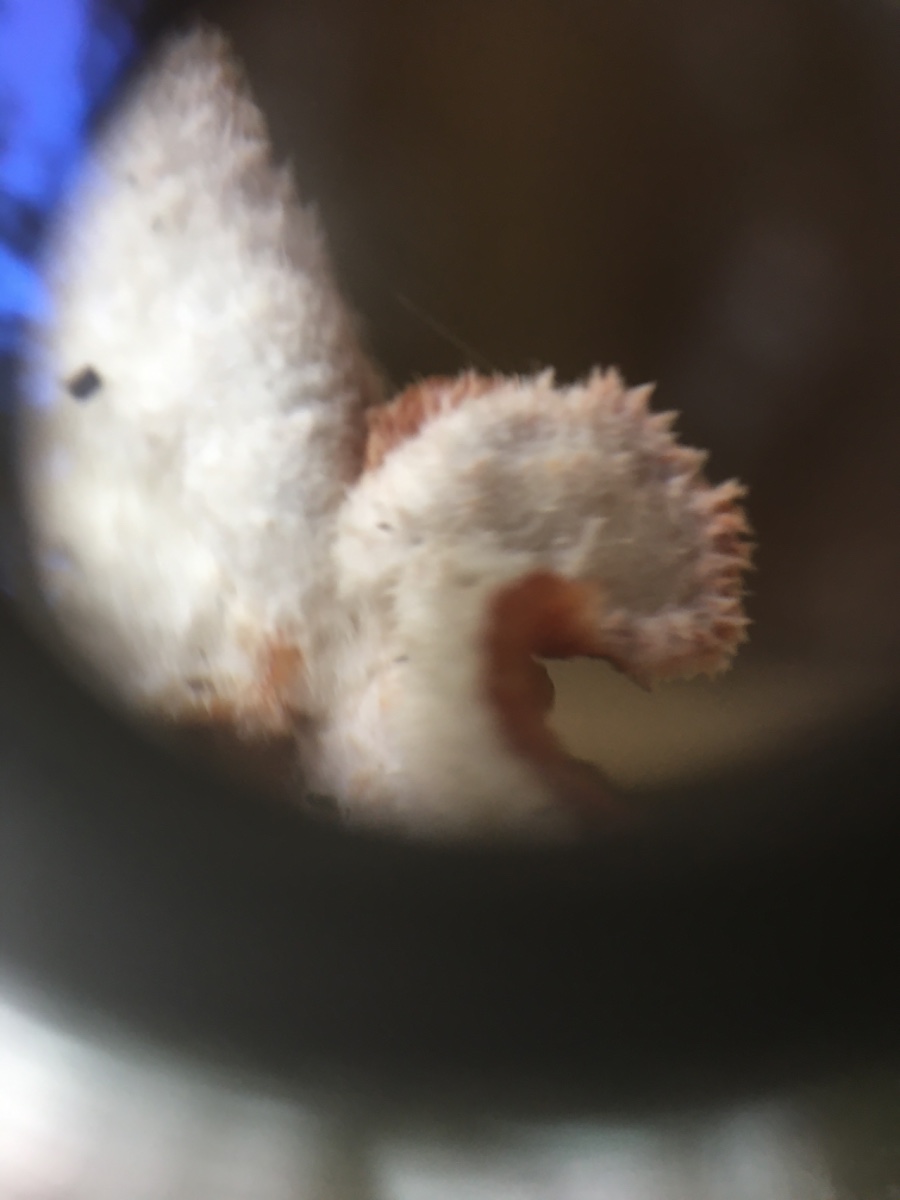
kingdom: Fungi
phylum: Basidiomycota
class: Agaricomycetes
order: Polyporales
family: Meruliaceae
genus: Phlebia
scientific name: Phlebia tremellosa
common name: bævrende åresvamp
